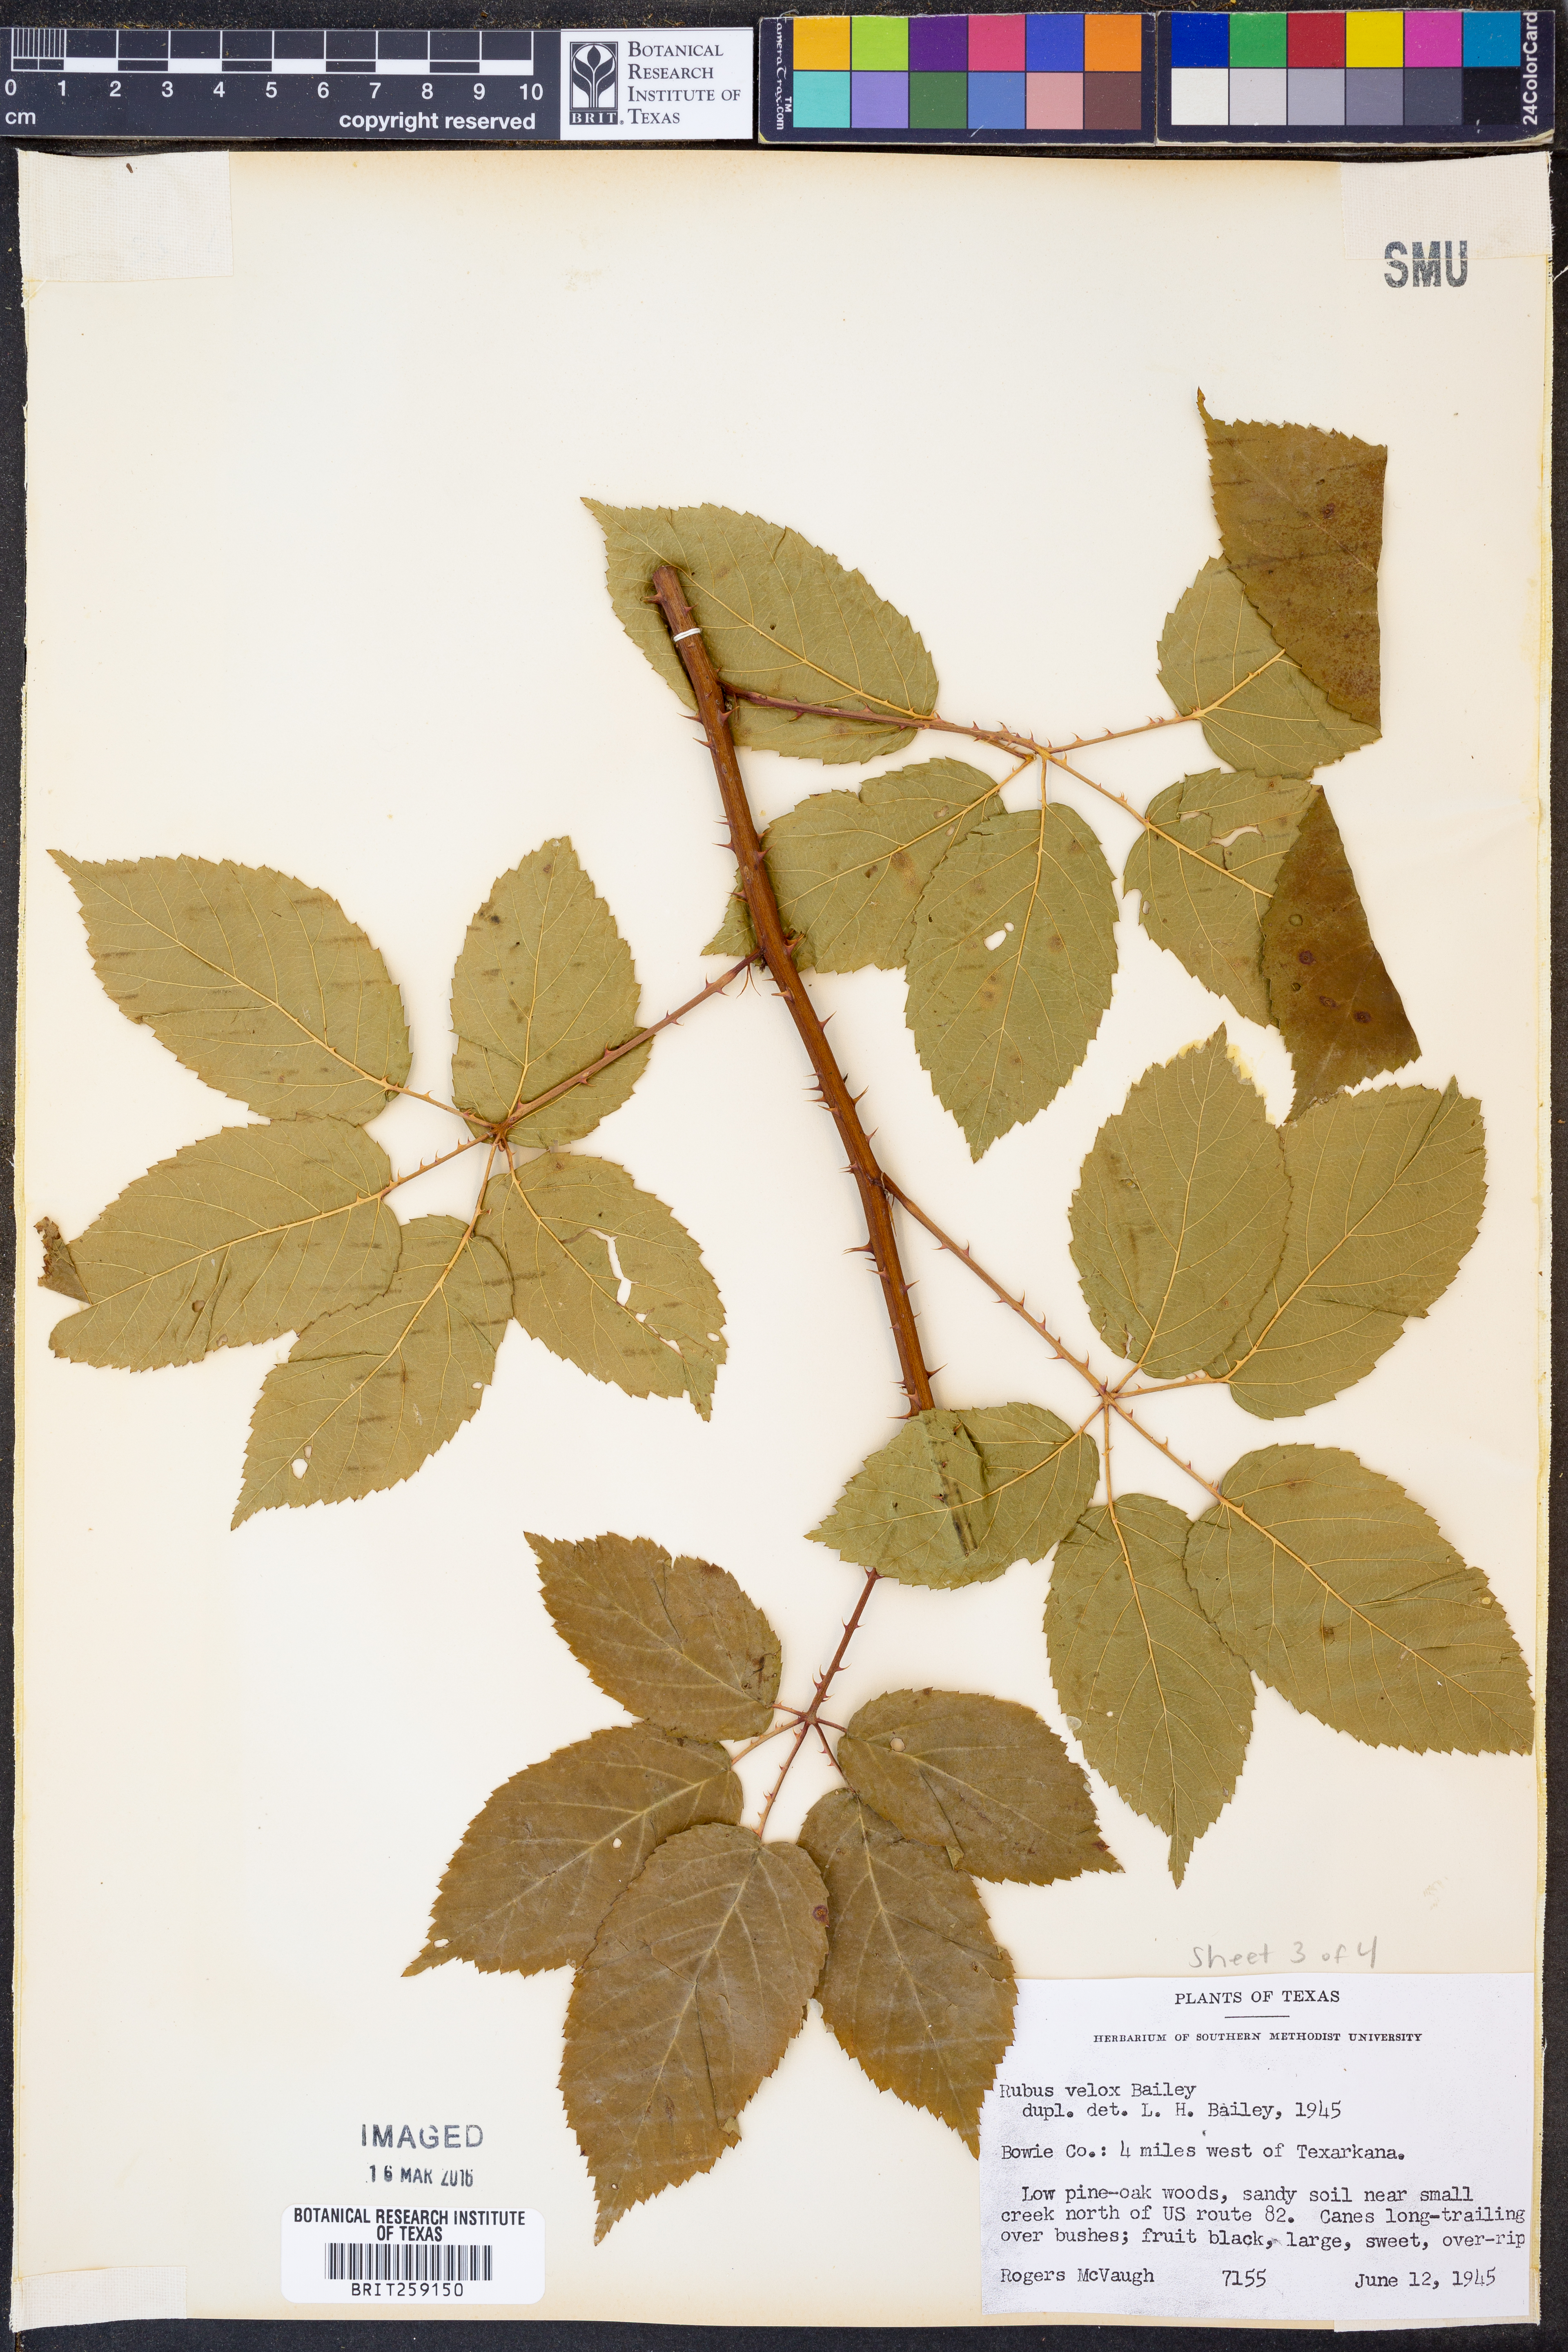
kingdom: Plantae
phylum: Tracheophyta
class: Magnoliopsida
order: Rosales
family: Rosaceae
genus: Rubus
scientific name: Rubus velox
